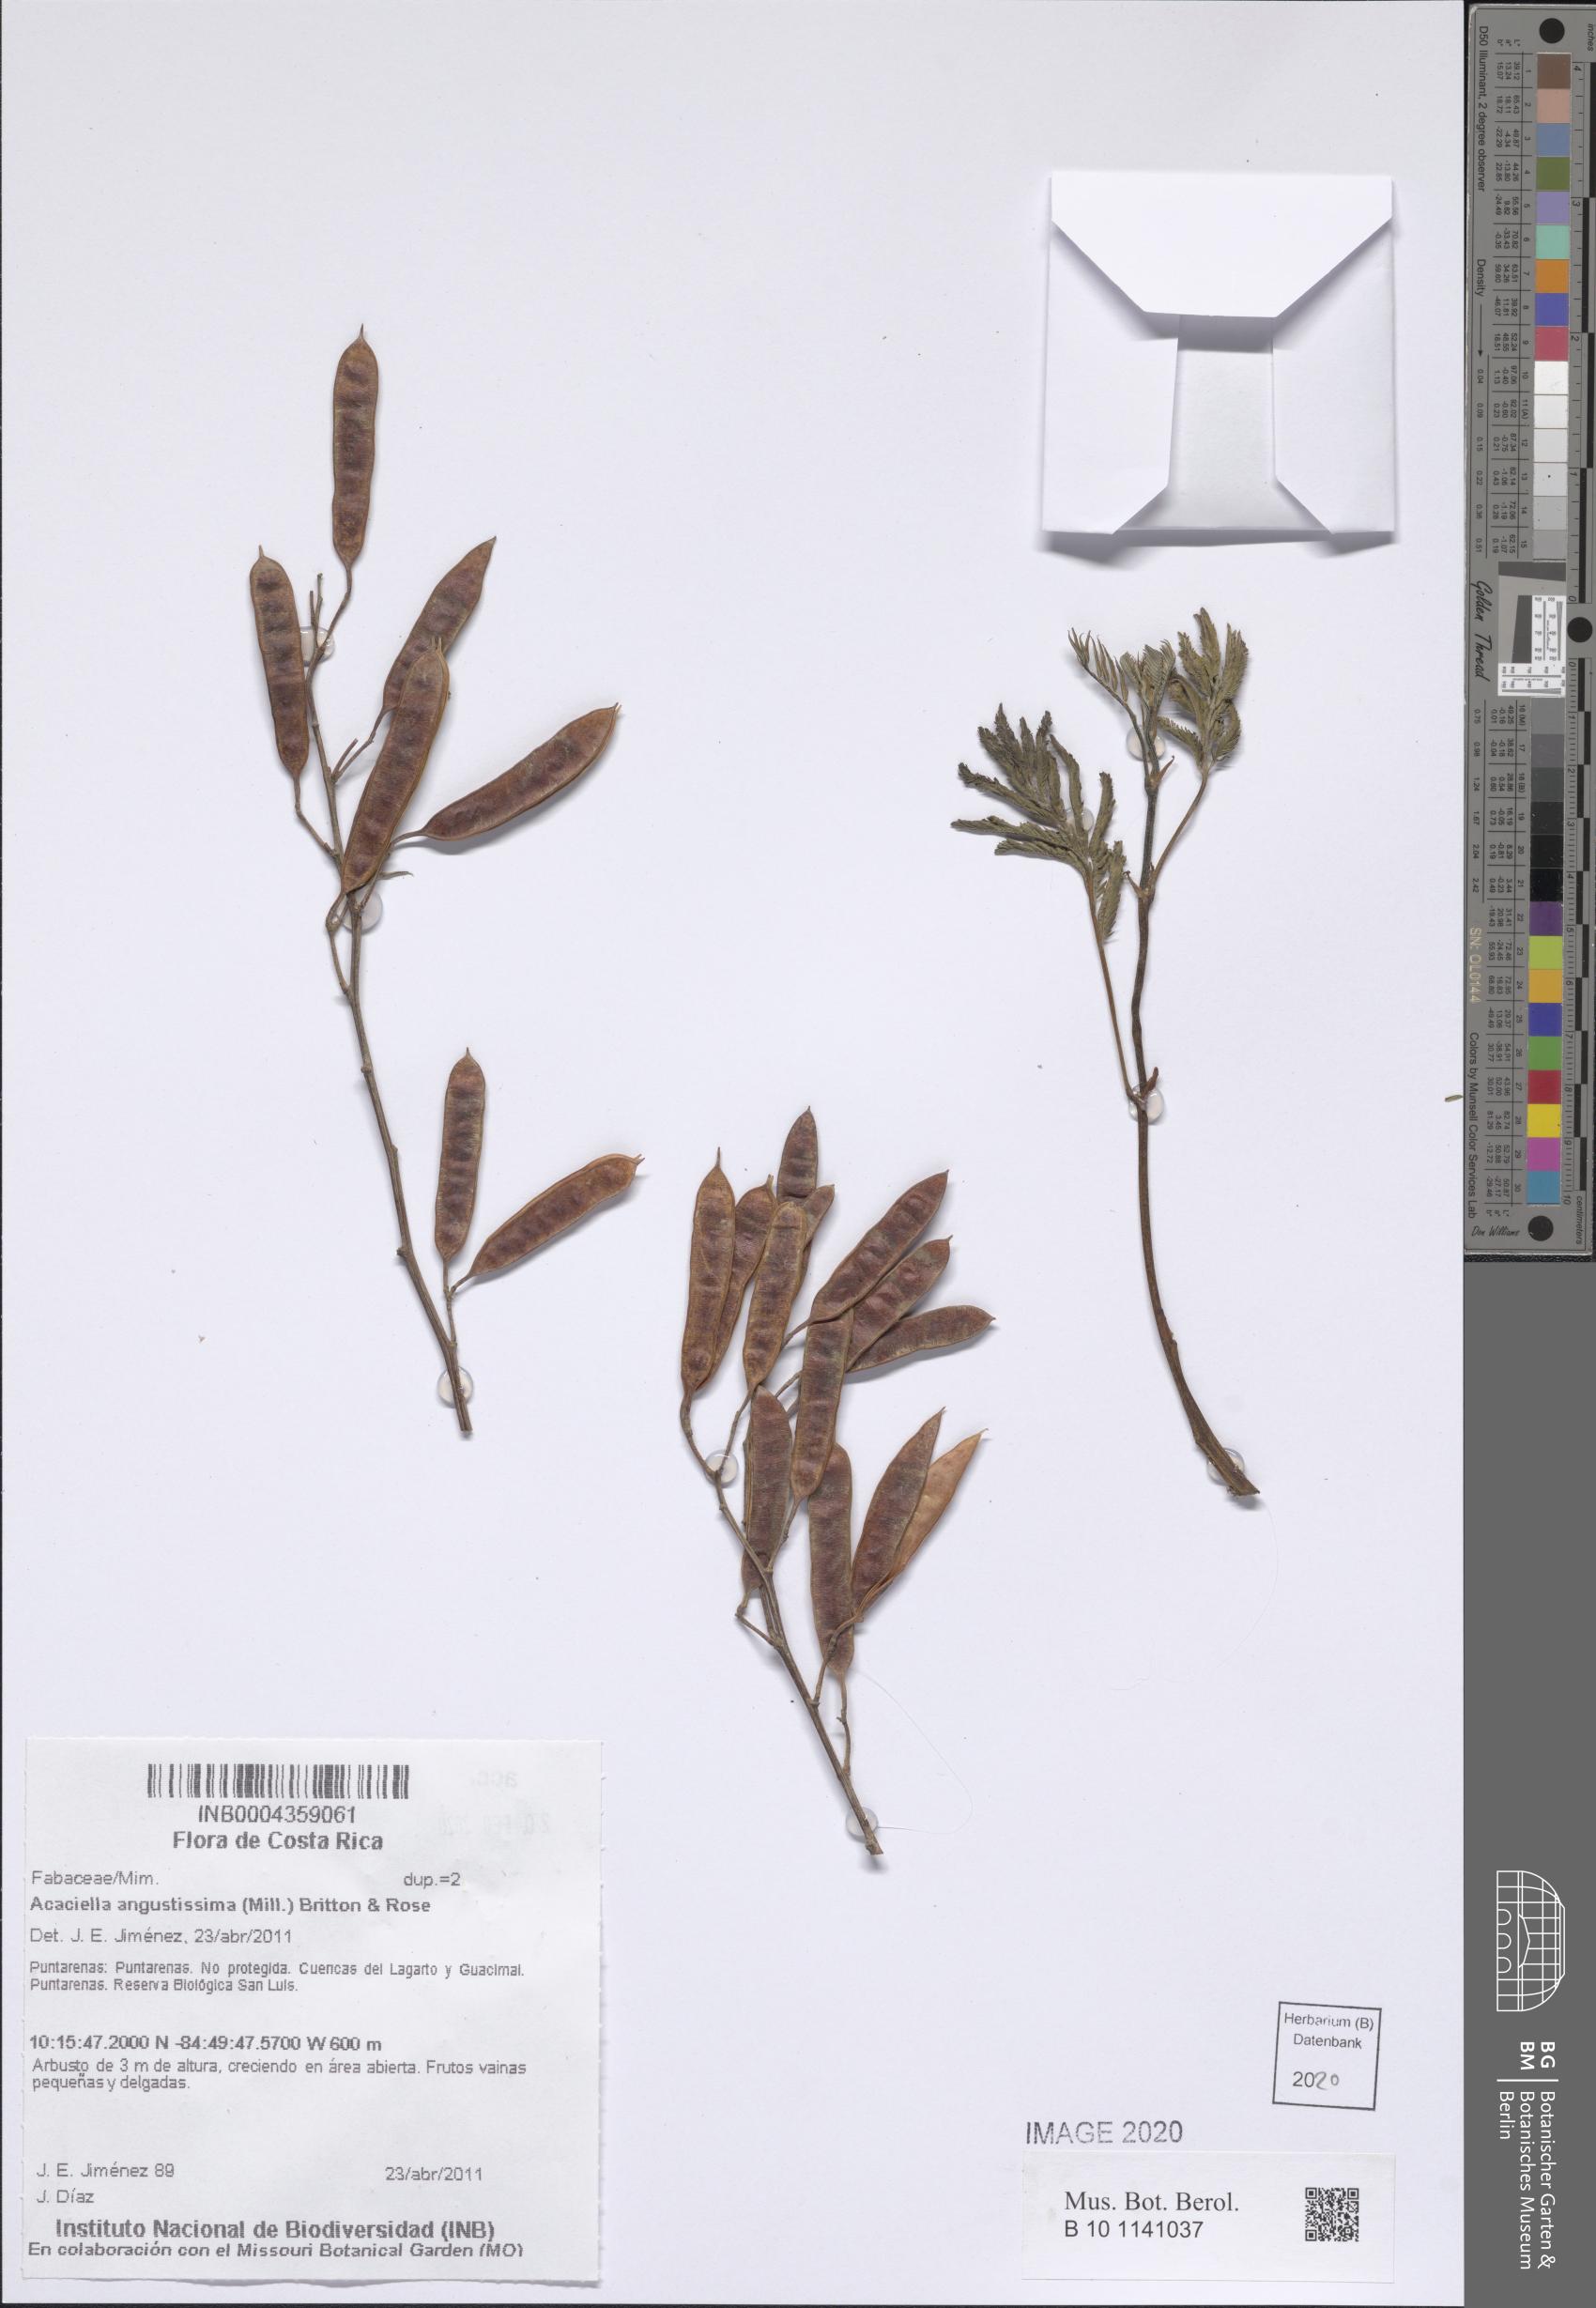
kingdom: Plantae
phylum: Tracheophyta
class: Magnoliopsida
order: Fabales
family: Fabaceae
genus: Acaciella
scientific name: Acaciella angustissima
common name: Prairie acacia
